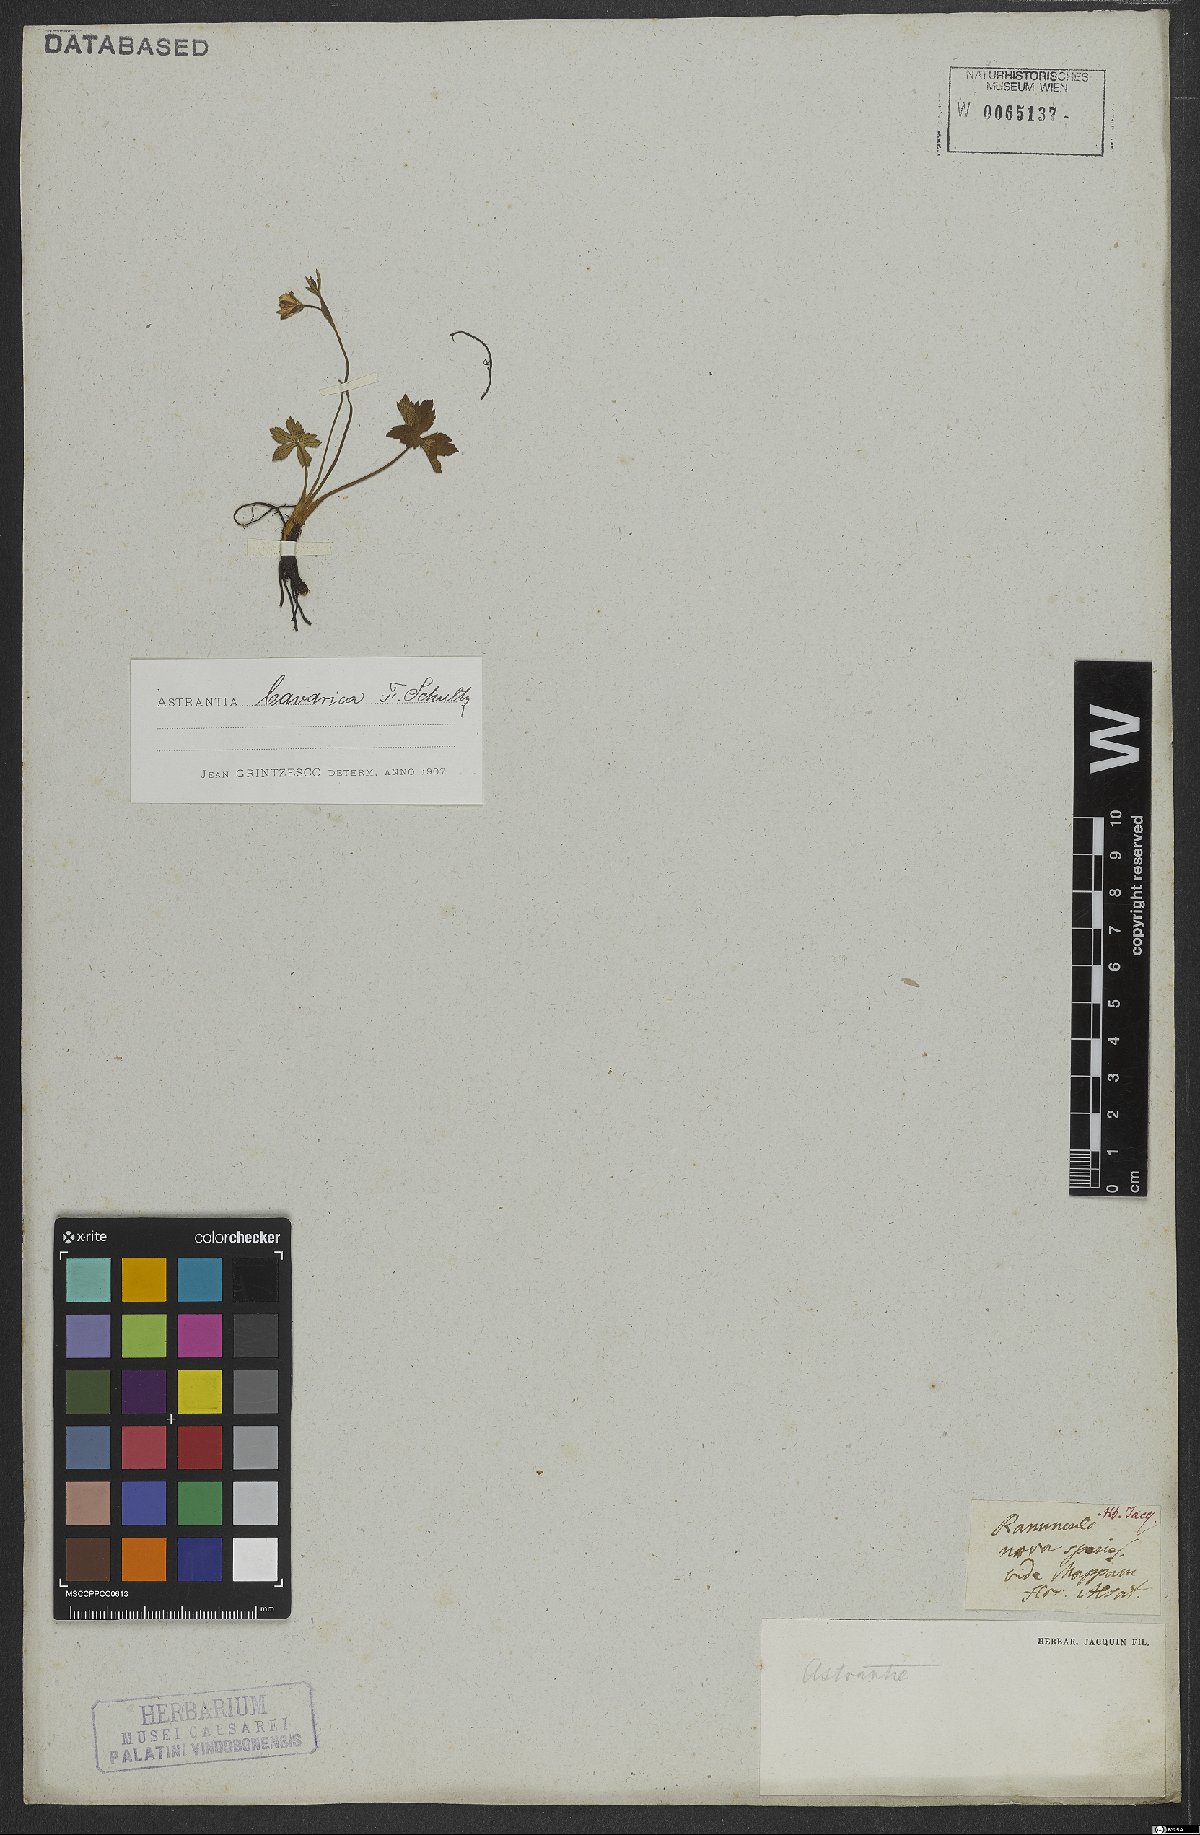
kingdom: Plantae
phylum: Tracheophyta
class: Magnoliopsida
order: Apiales
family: Apiaceae
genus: Astrantia
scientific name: Astrantia bavarica
